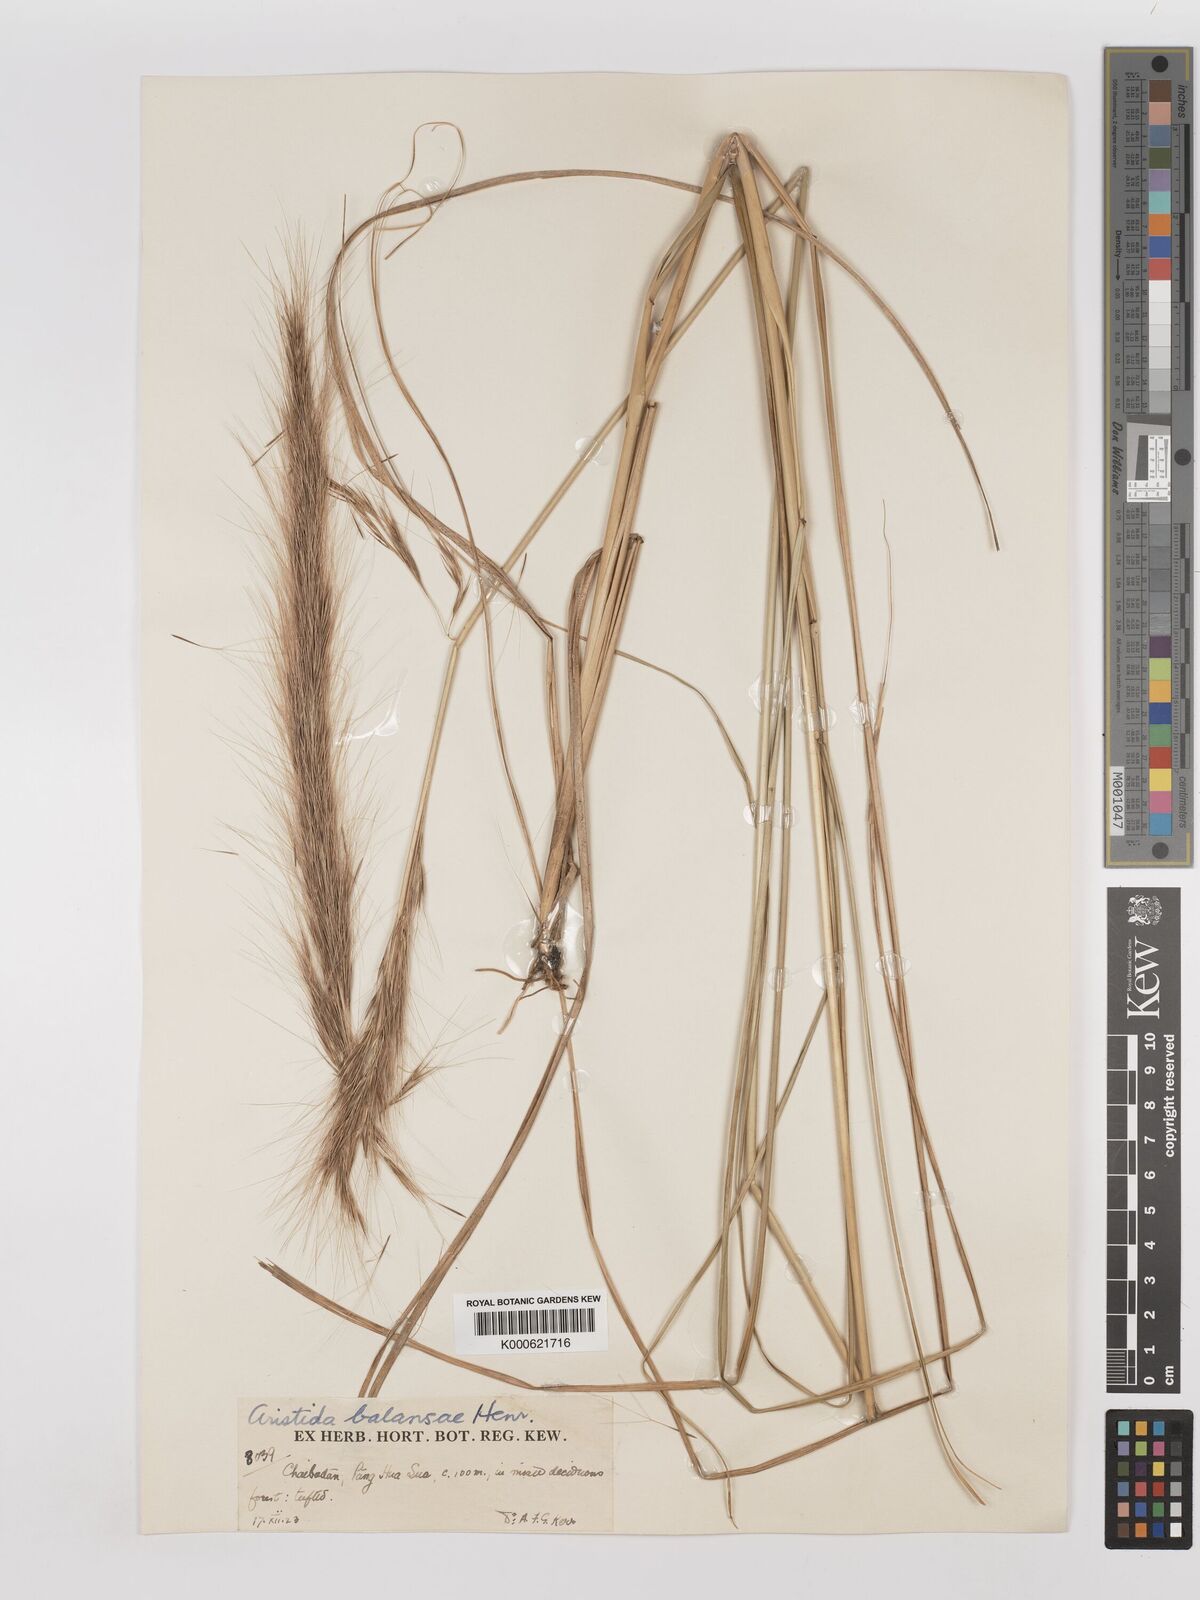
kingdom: Plantae
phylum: Tracheophyta
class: Liliopsida
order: Poales
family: Poaceae
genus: Aristida
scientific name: Aristida balansae
